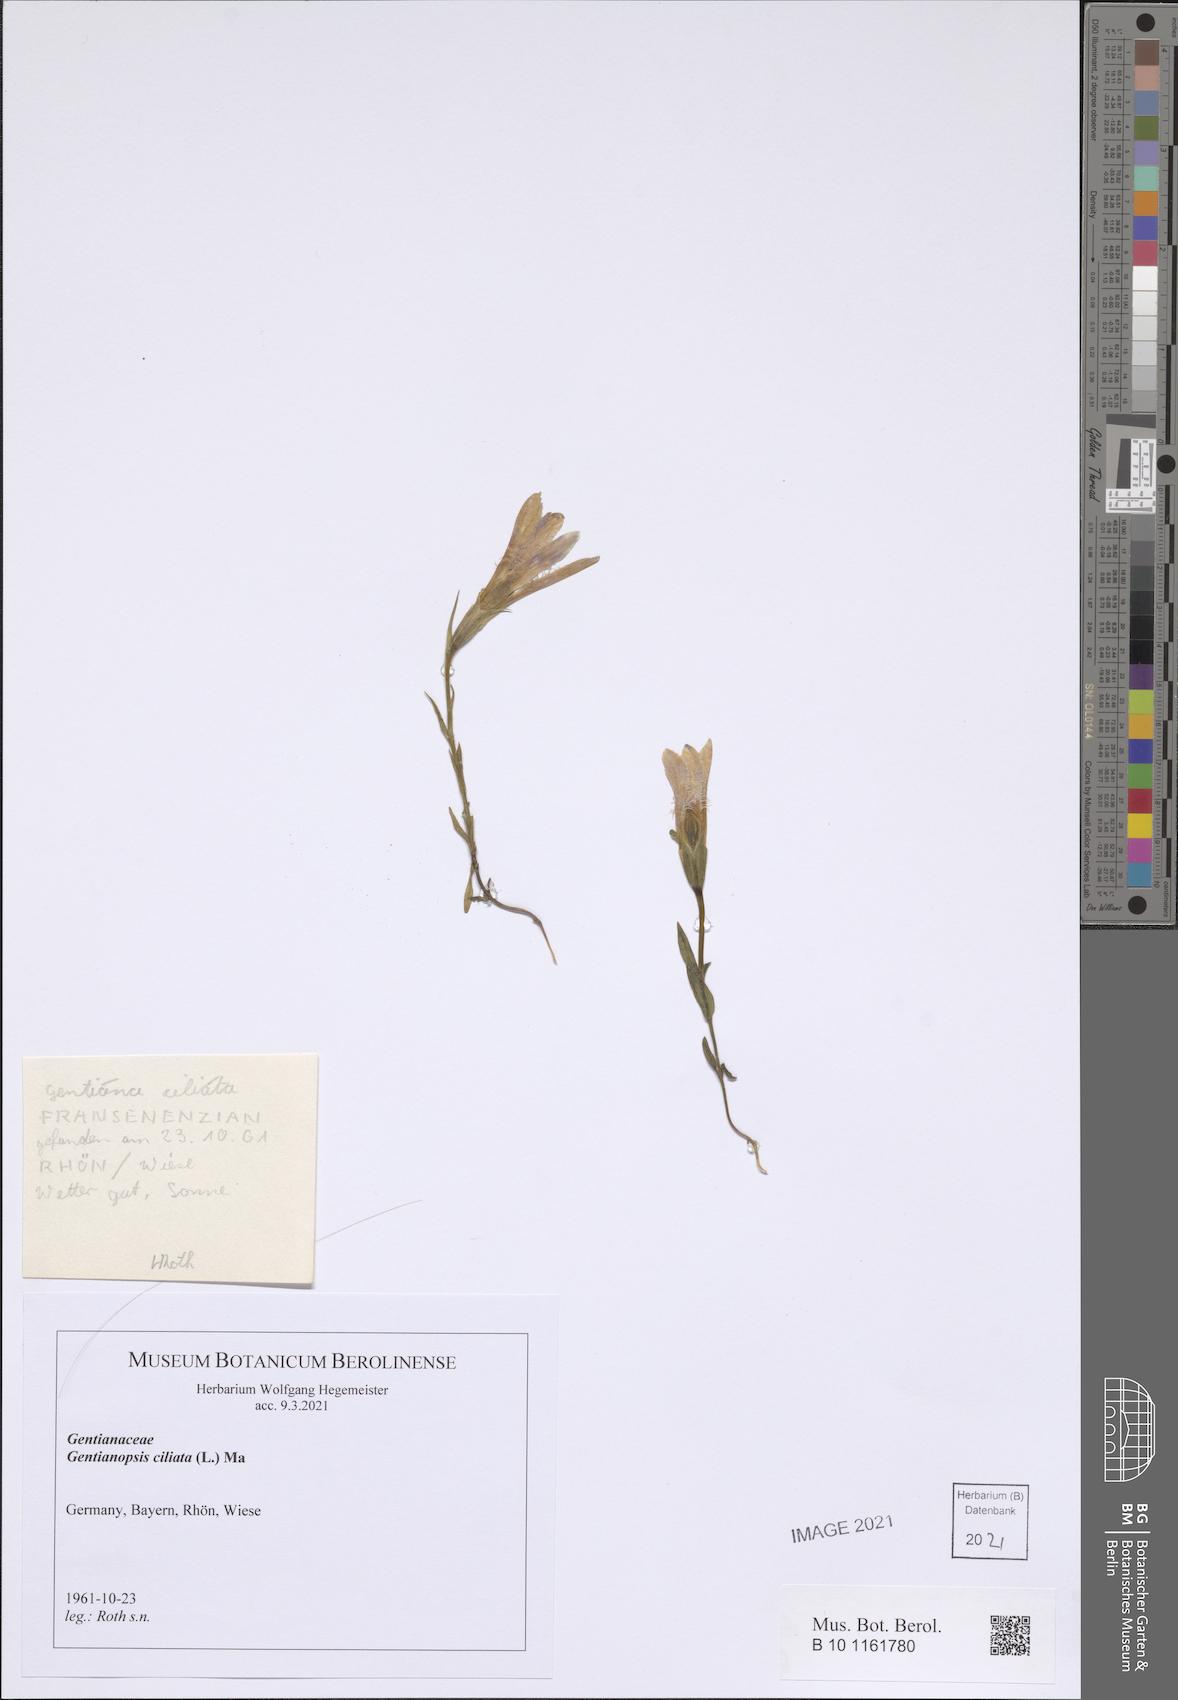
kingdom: Plantae
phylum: Tracheophyta
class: Magnoliopsida
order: Gentianales
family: Gentianaceae
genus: Gentianopsis
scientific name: Gentianopsis ciliata
